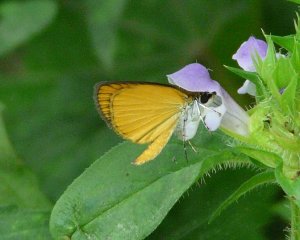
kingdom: Animalia
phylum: Arthropoda
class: Insecta
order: Lepidoptera
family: Hesperiidae
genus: Ancyloxypha
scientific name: Ancyloxypha numitor
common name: Least Skipper
